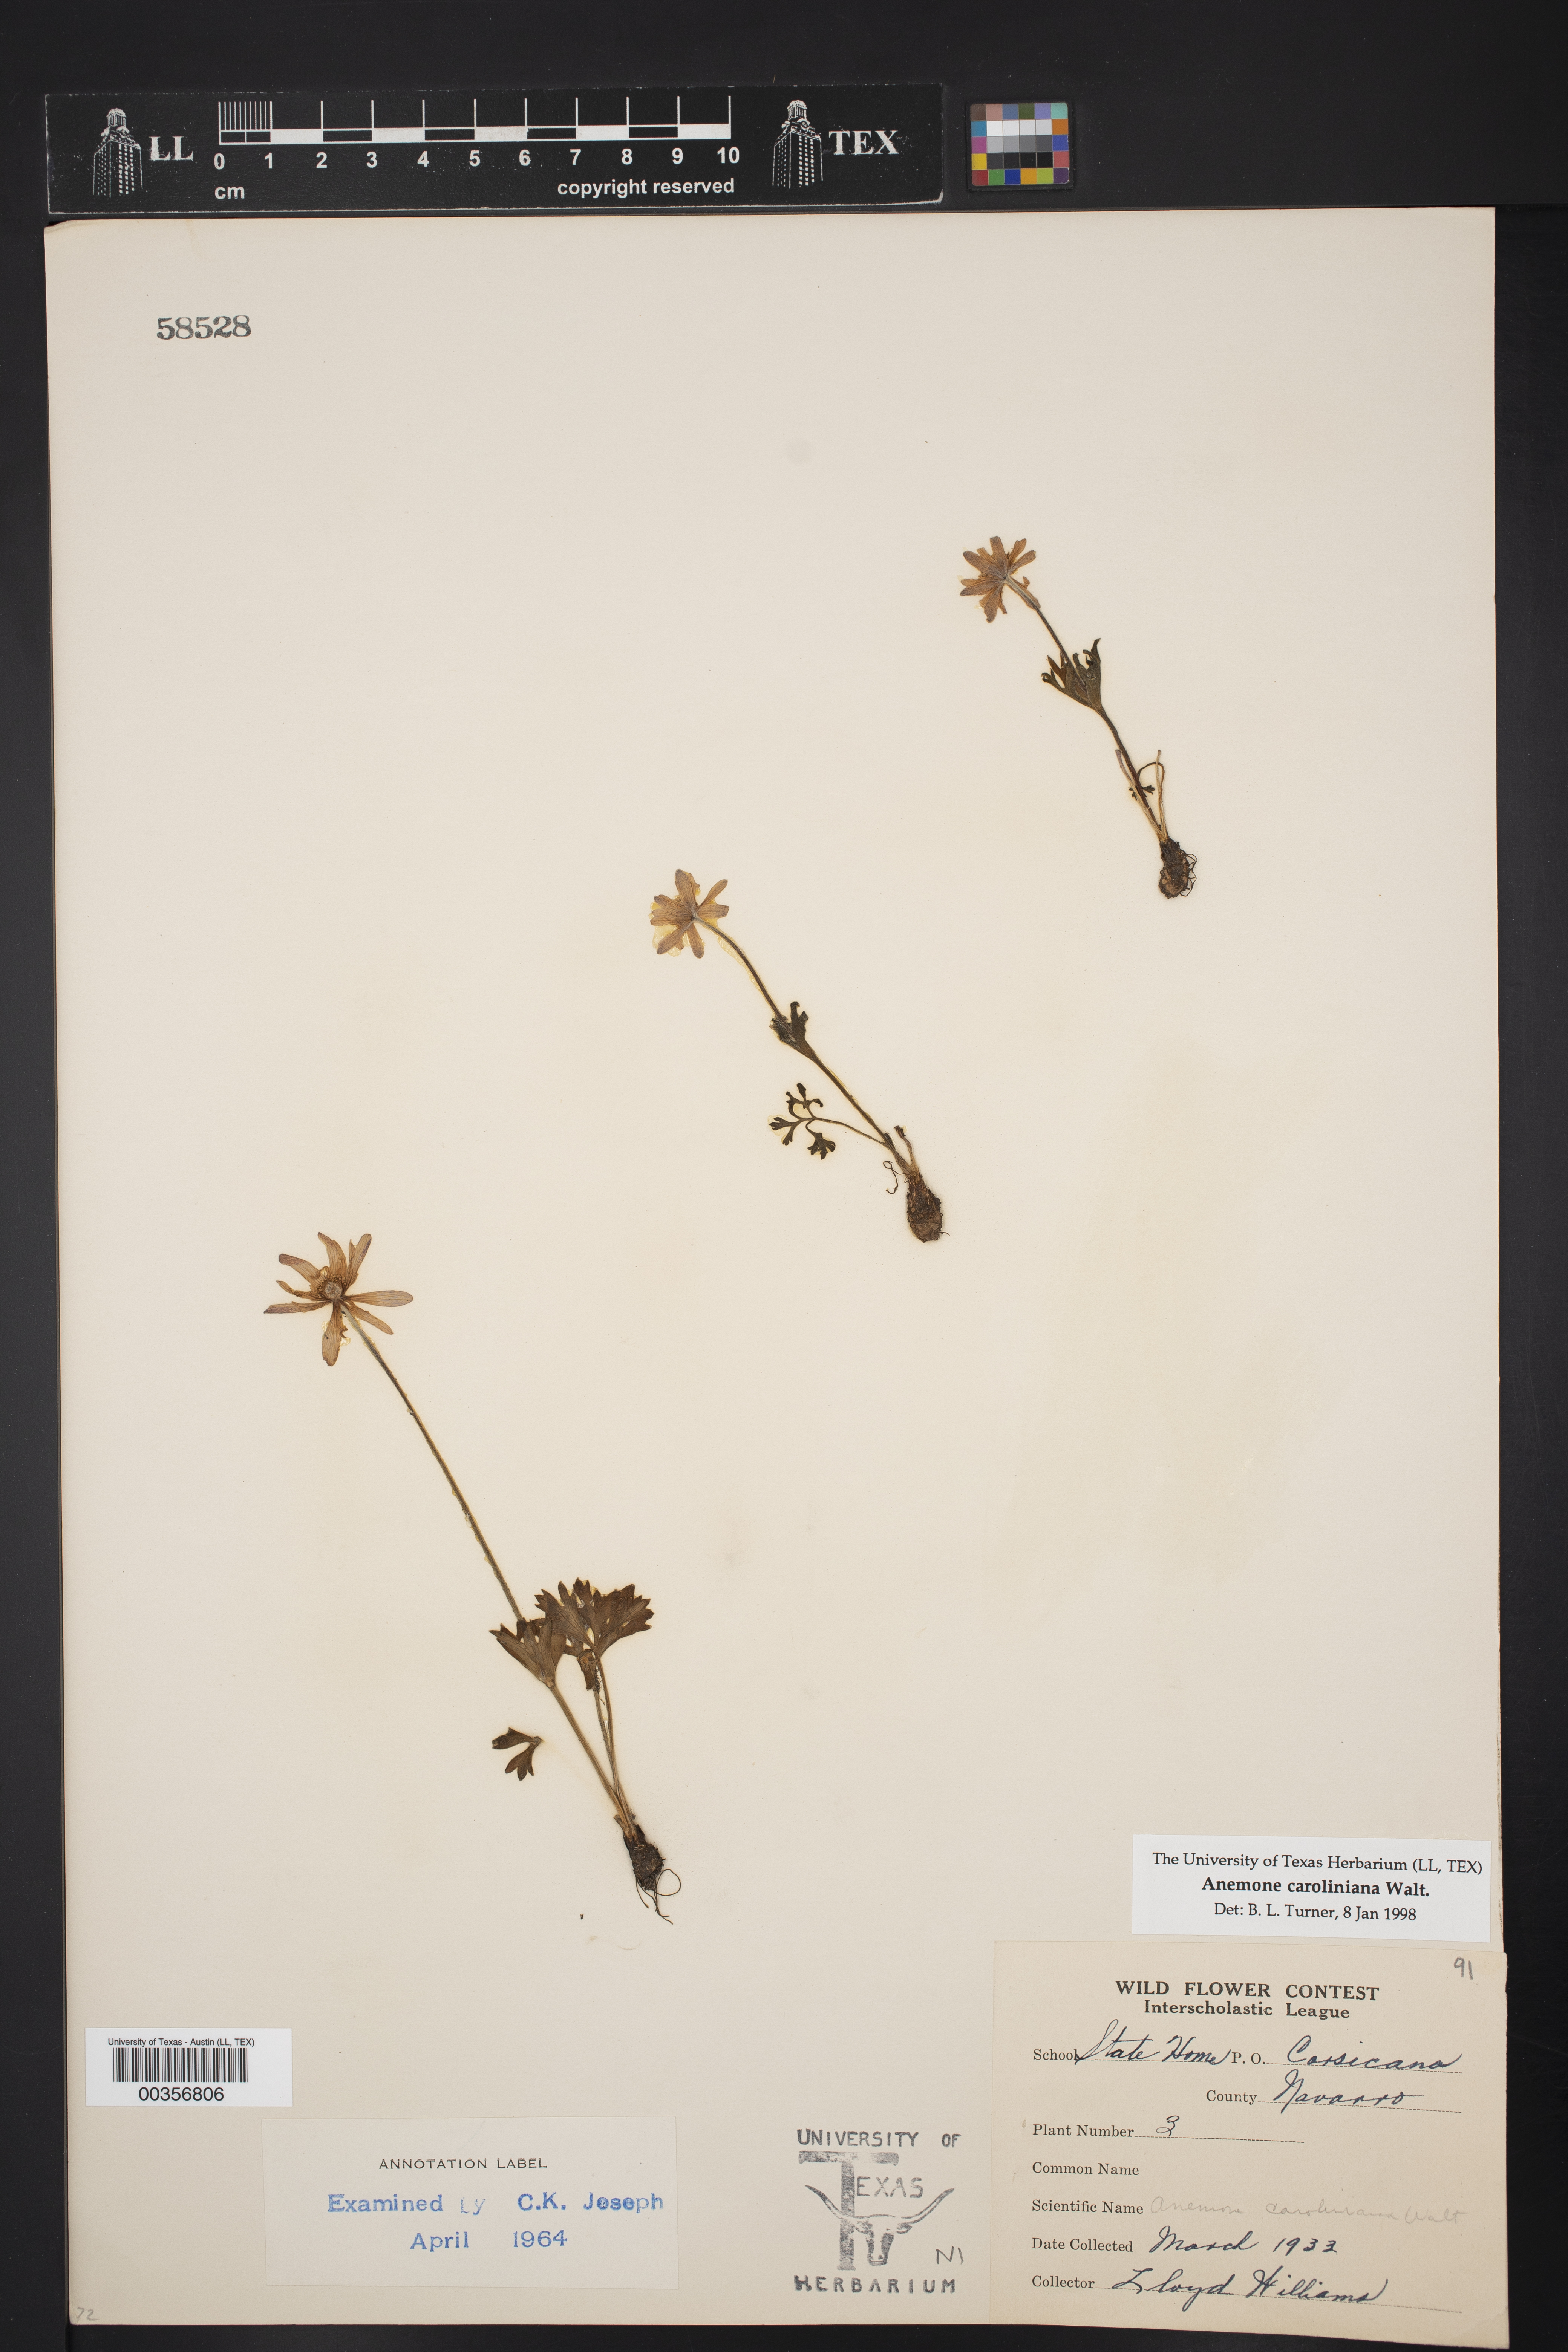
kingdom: Plantae
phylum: Tracheophyta
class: Magnoliopsida
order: Ranunculales
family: Ranunculaceae
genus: Anemone
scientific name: Anemone caroliniana
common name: Carolina anemone
